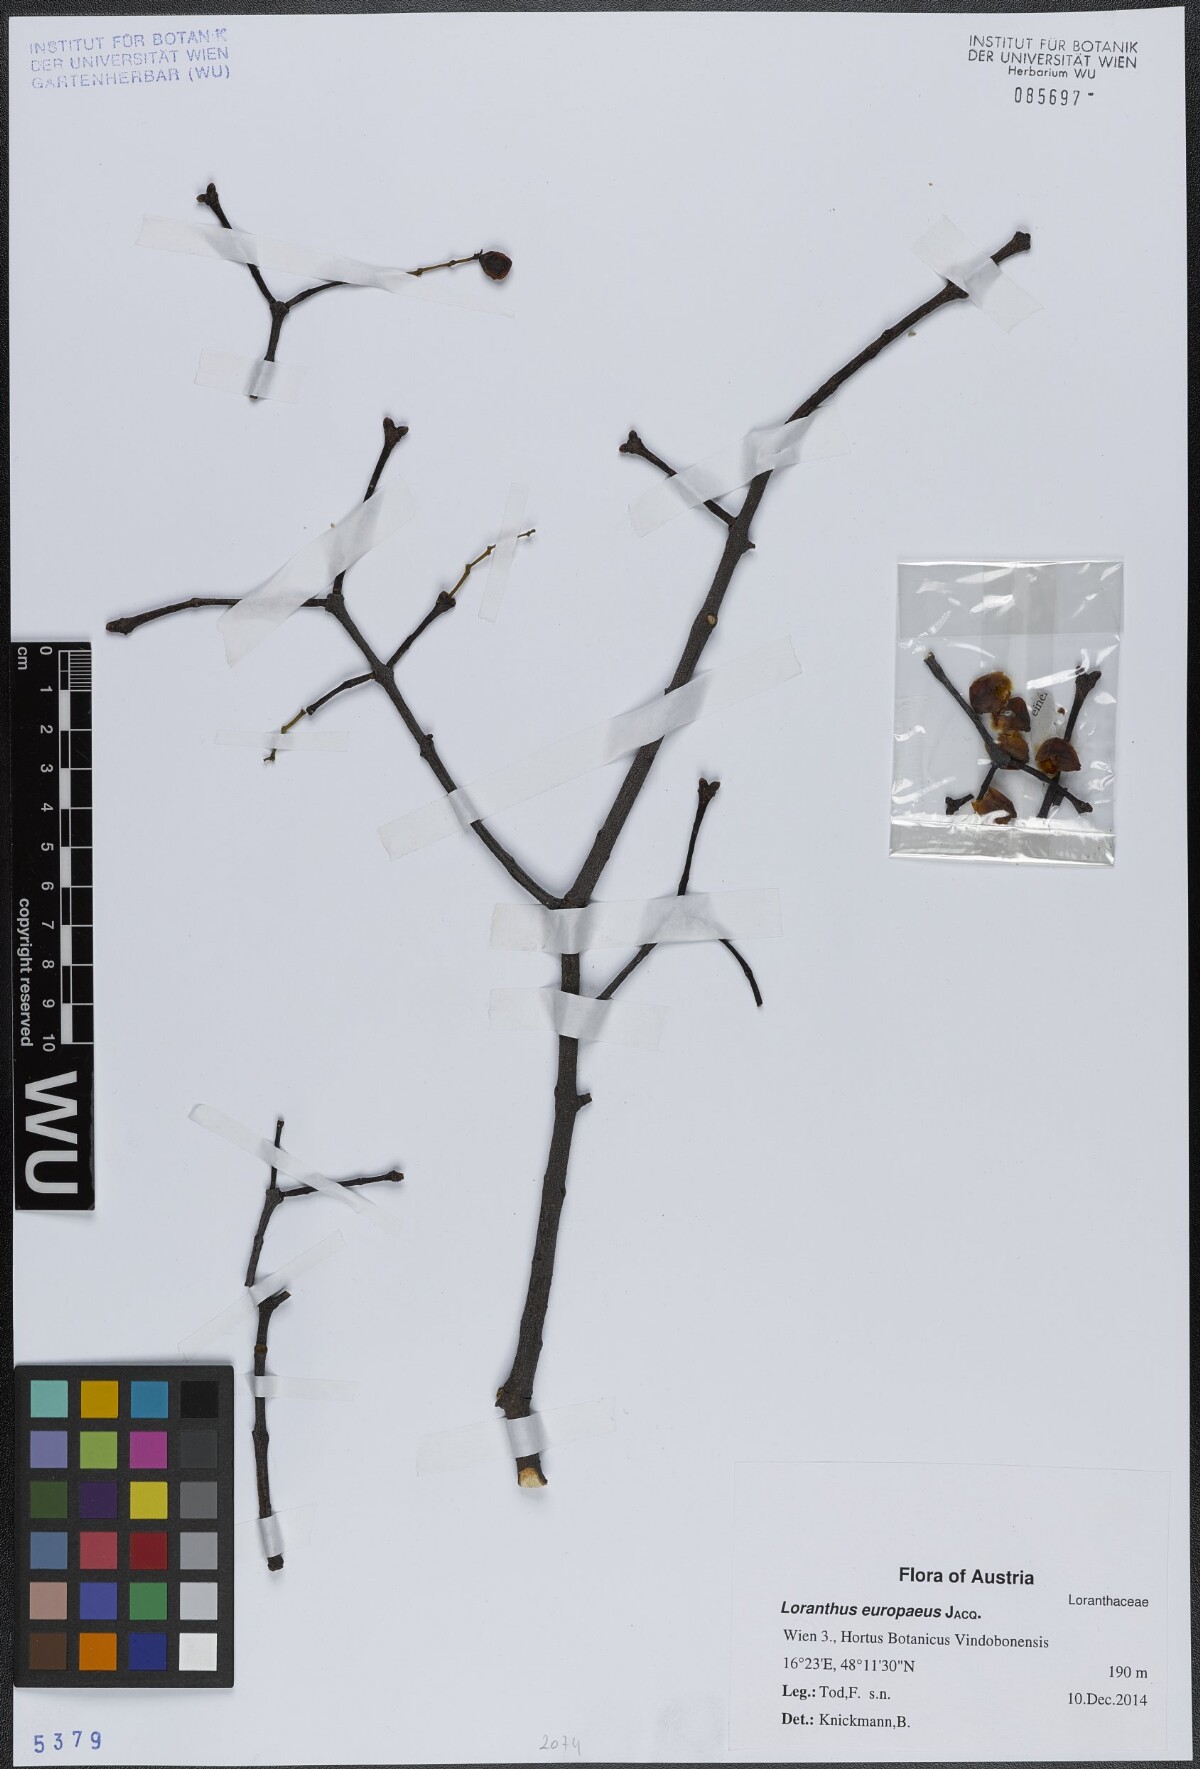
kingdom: Plantae
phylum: Tracheophyta
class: Magnoliopsida
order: Santalales
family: Loranthaceae
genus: Loranthus
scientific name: Loranthus europaeus
